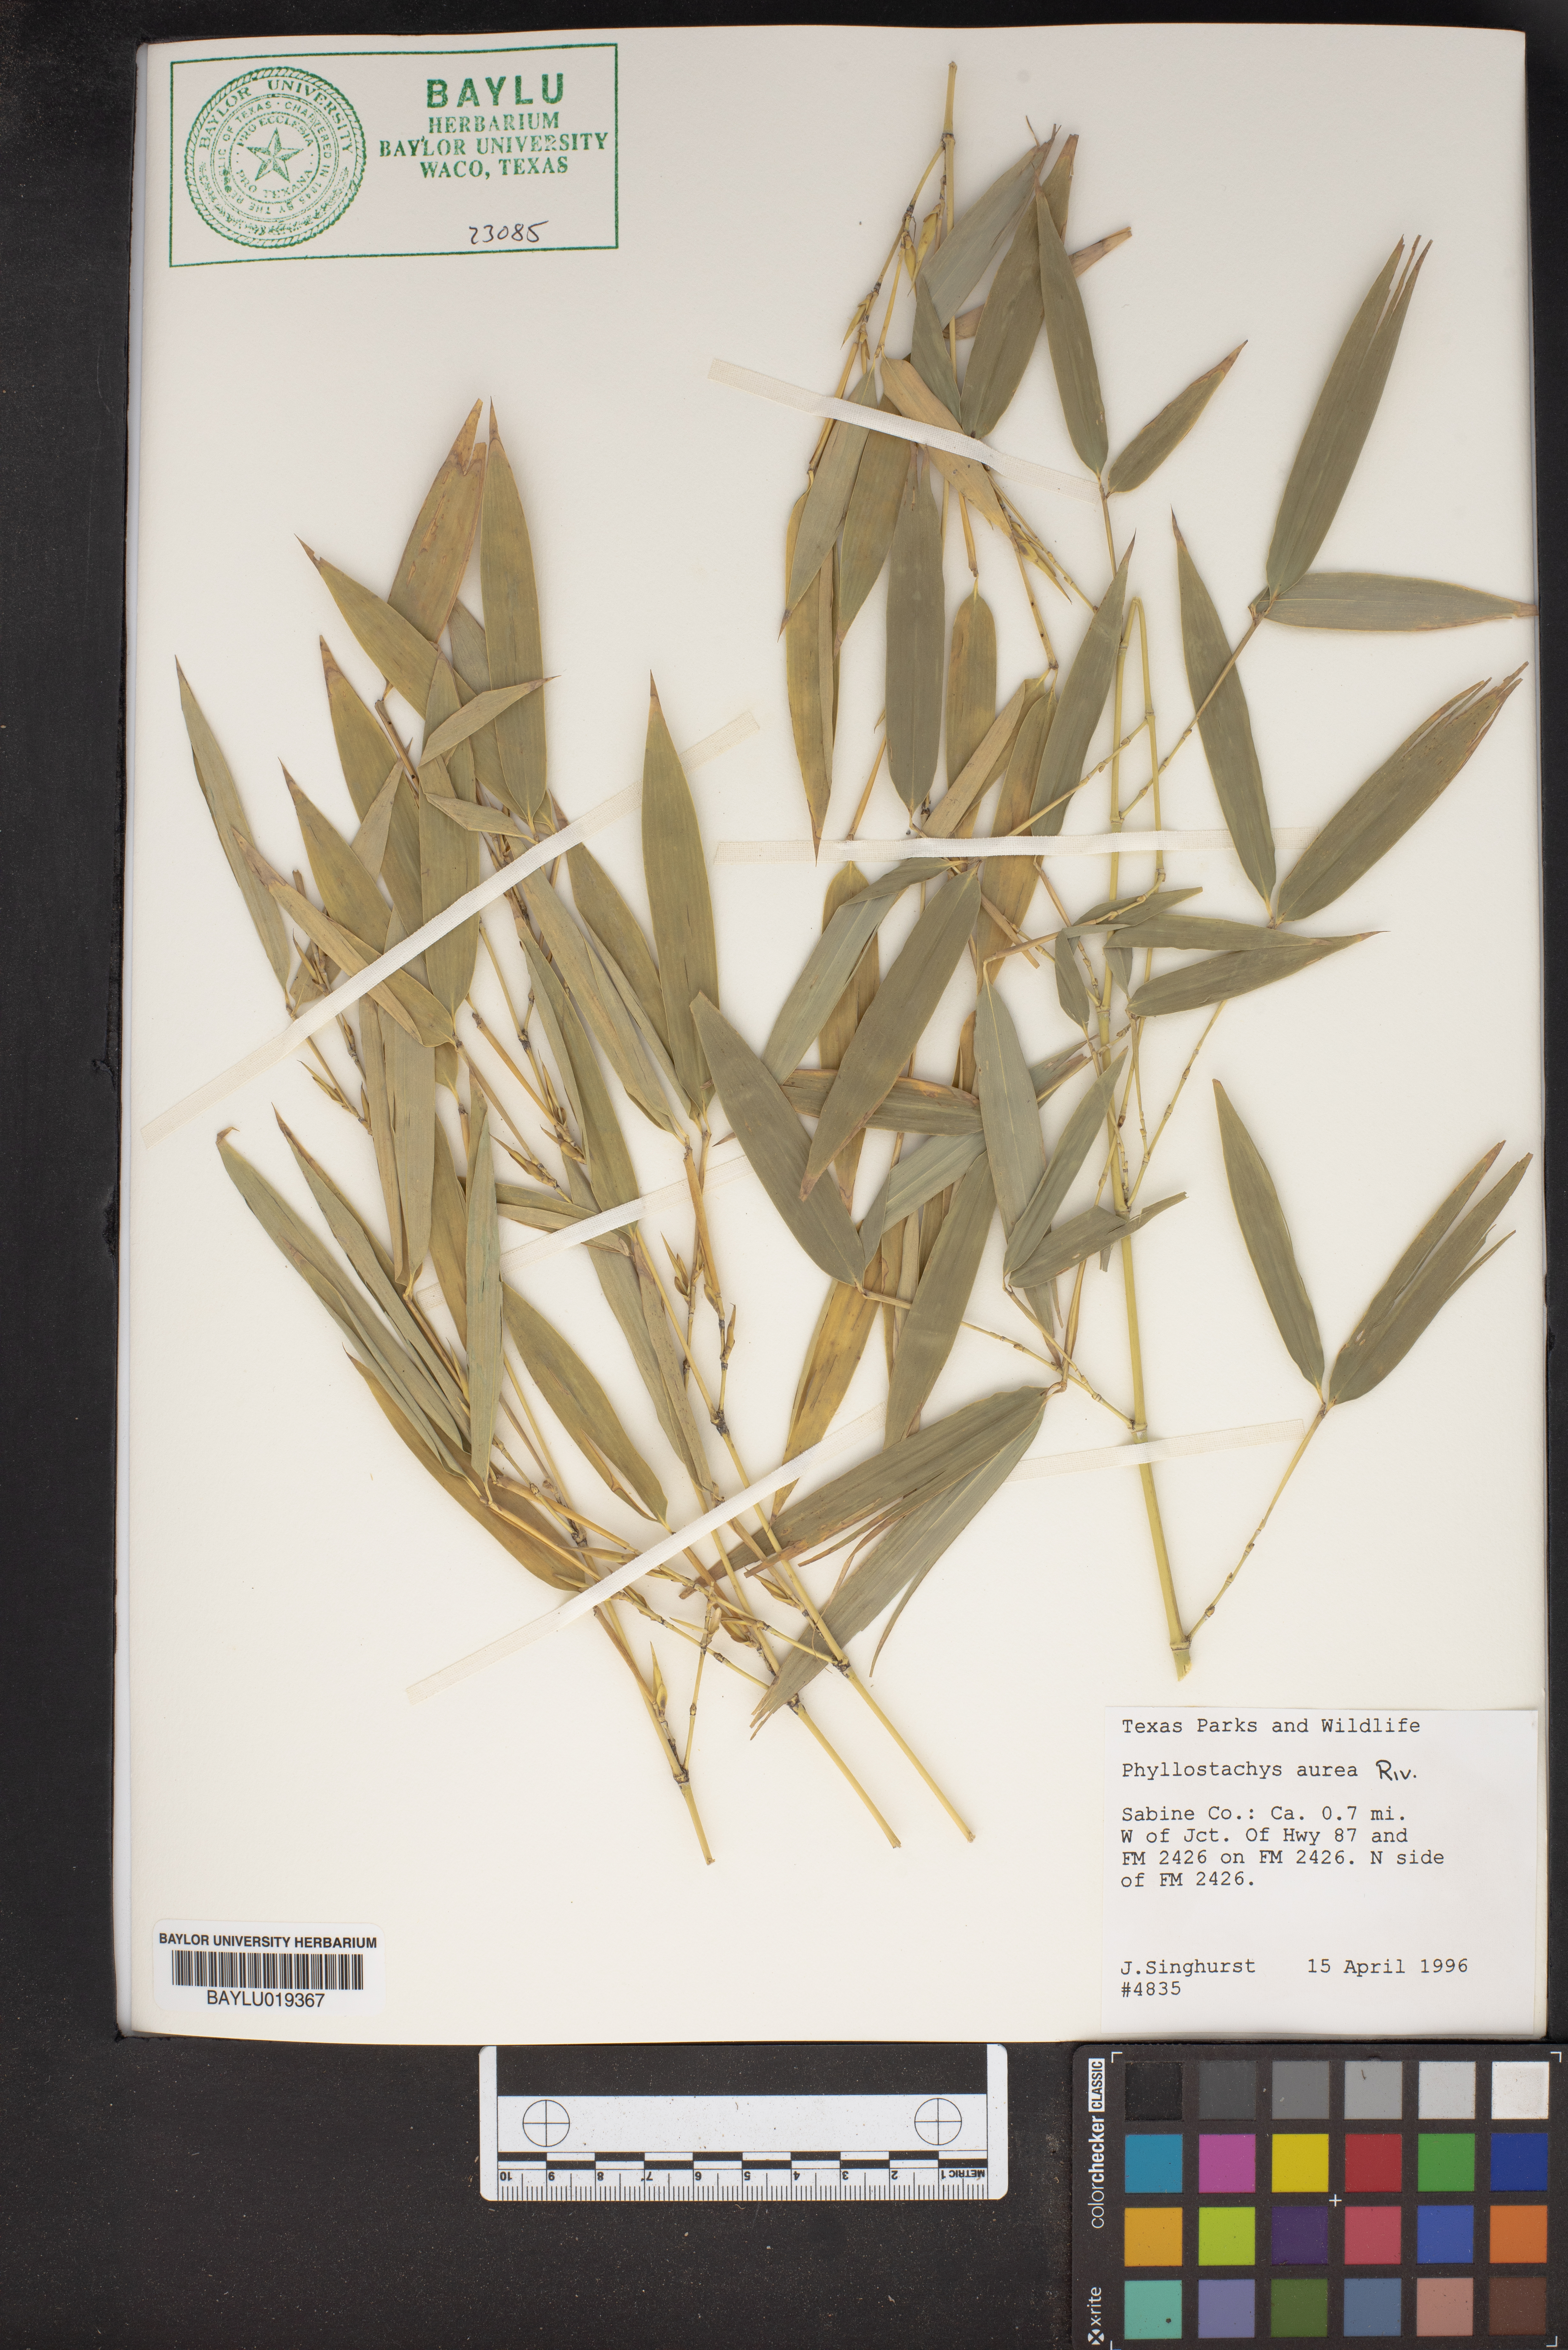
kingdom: Plantae
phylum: Tracheophyta
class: Liliopsida
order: Poales
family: Poaceae
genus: Phyllostachys
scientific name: Phyllostachys aurea
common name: Golden bamboo
